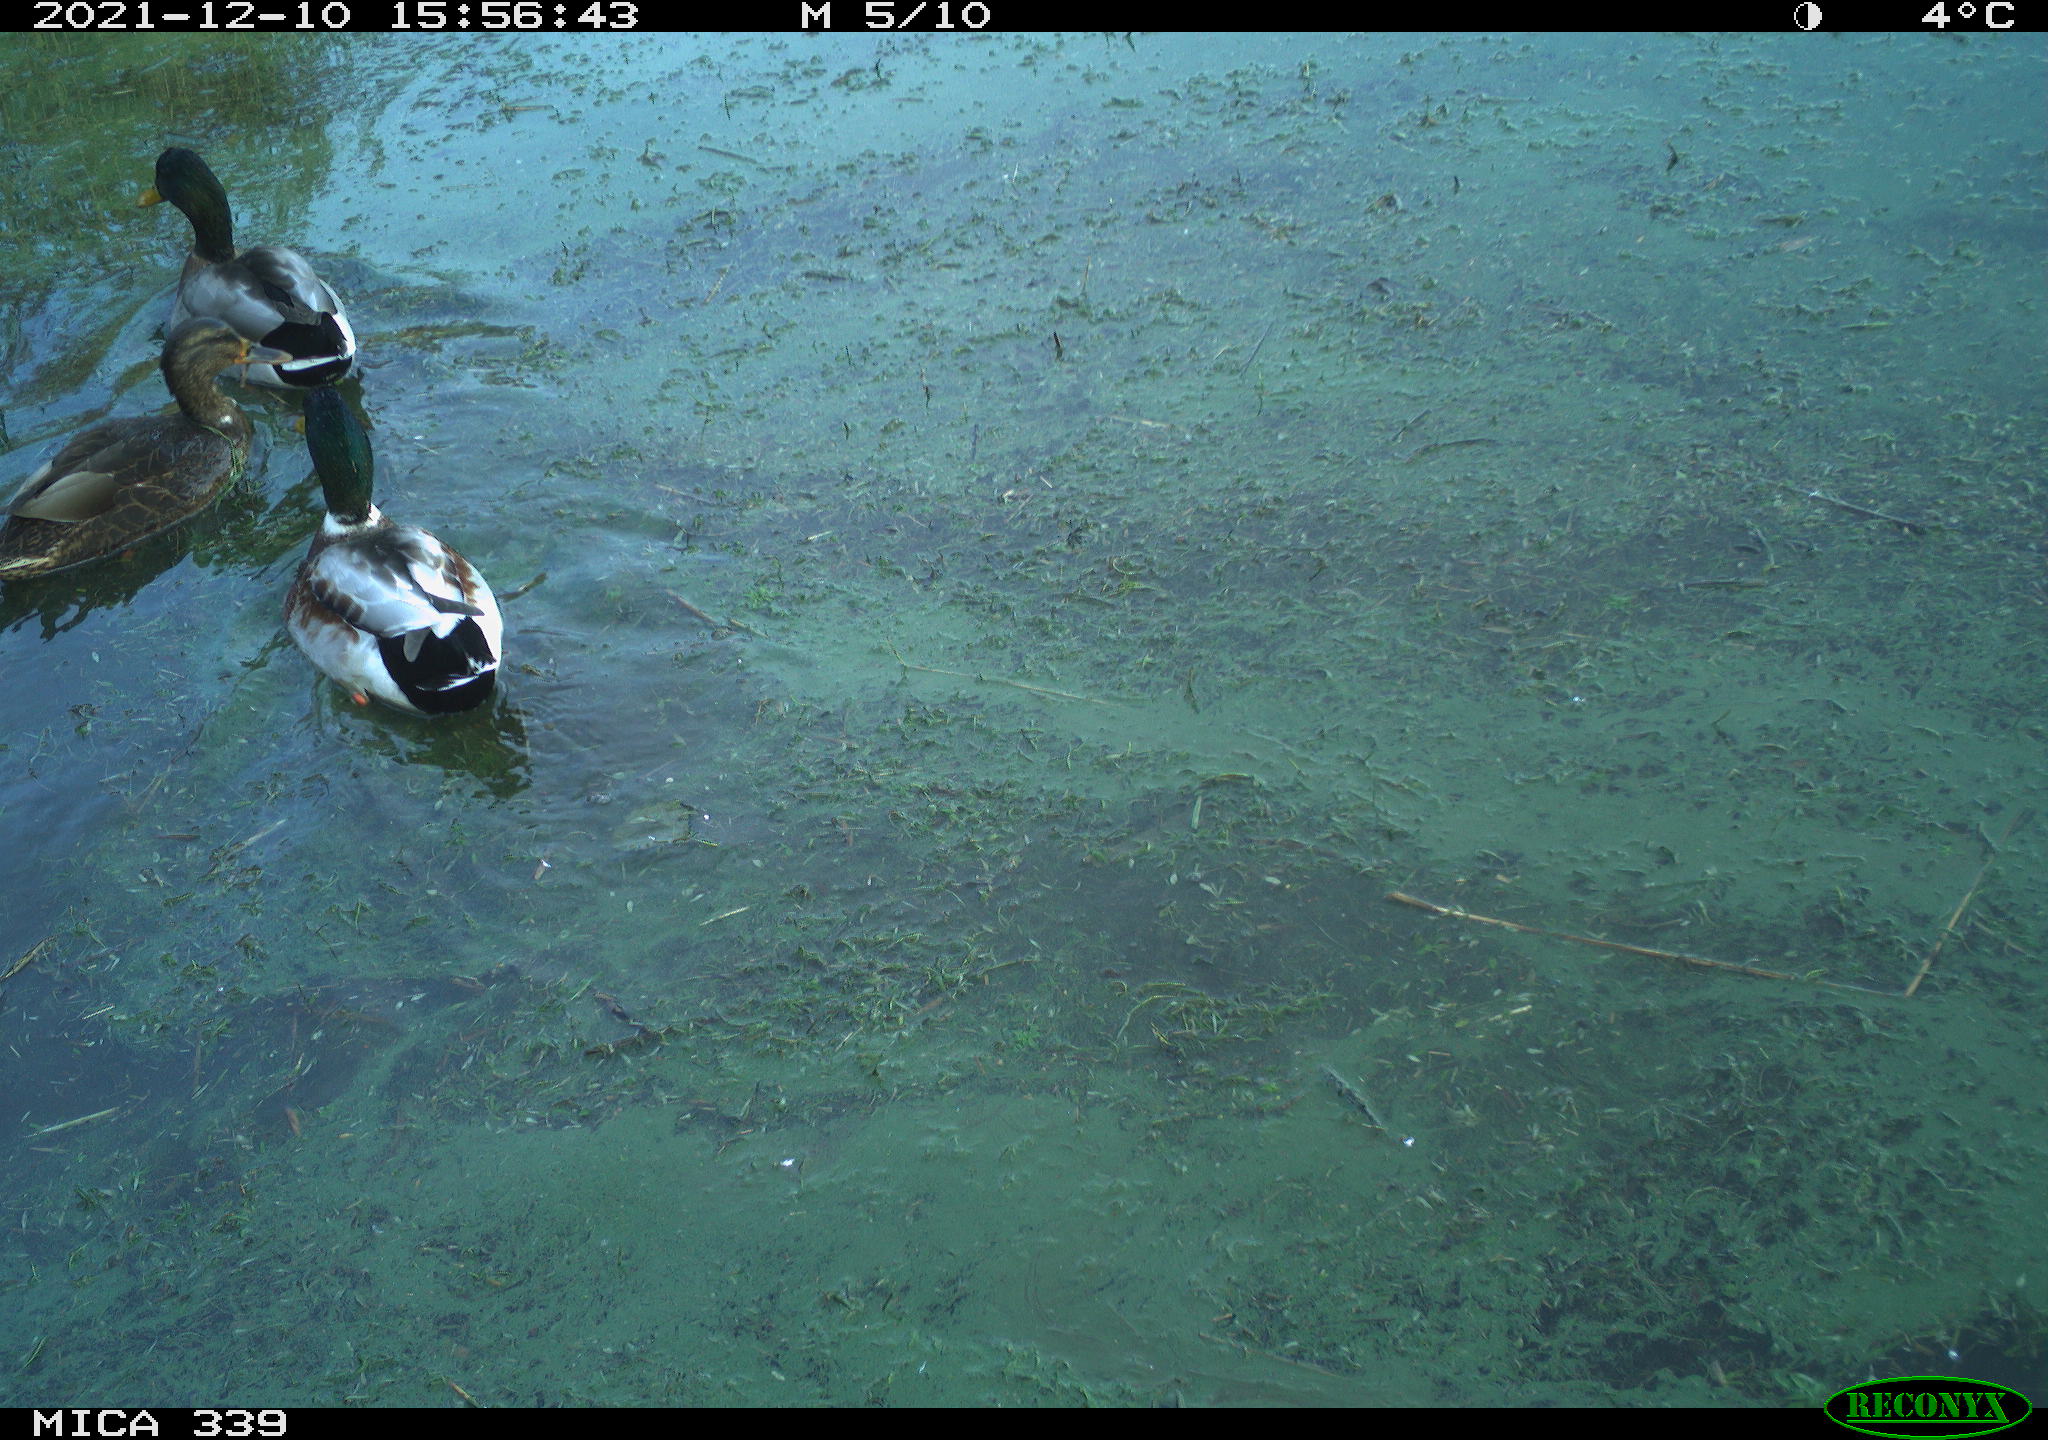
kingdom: Animalia
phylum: Chordata
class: Aves
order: Anseriformes
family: Anatidae
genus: Anas
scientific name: Anas platyrhynchos
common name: Mallard
